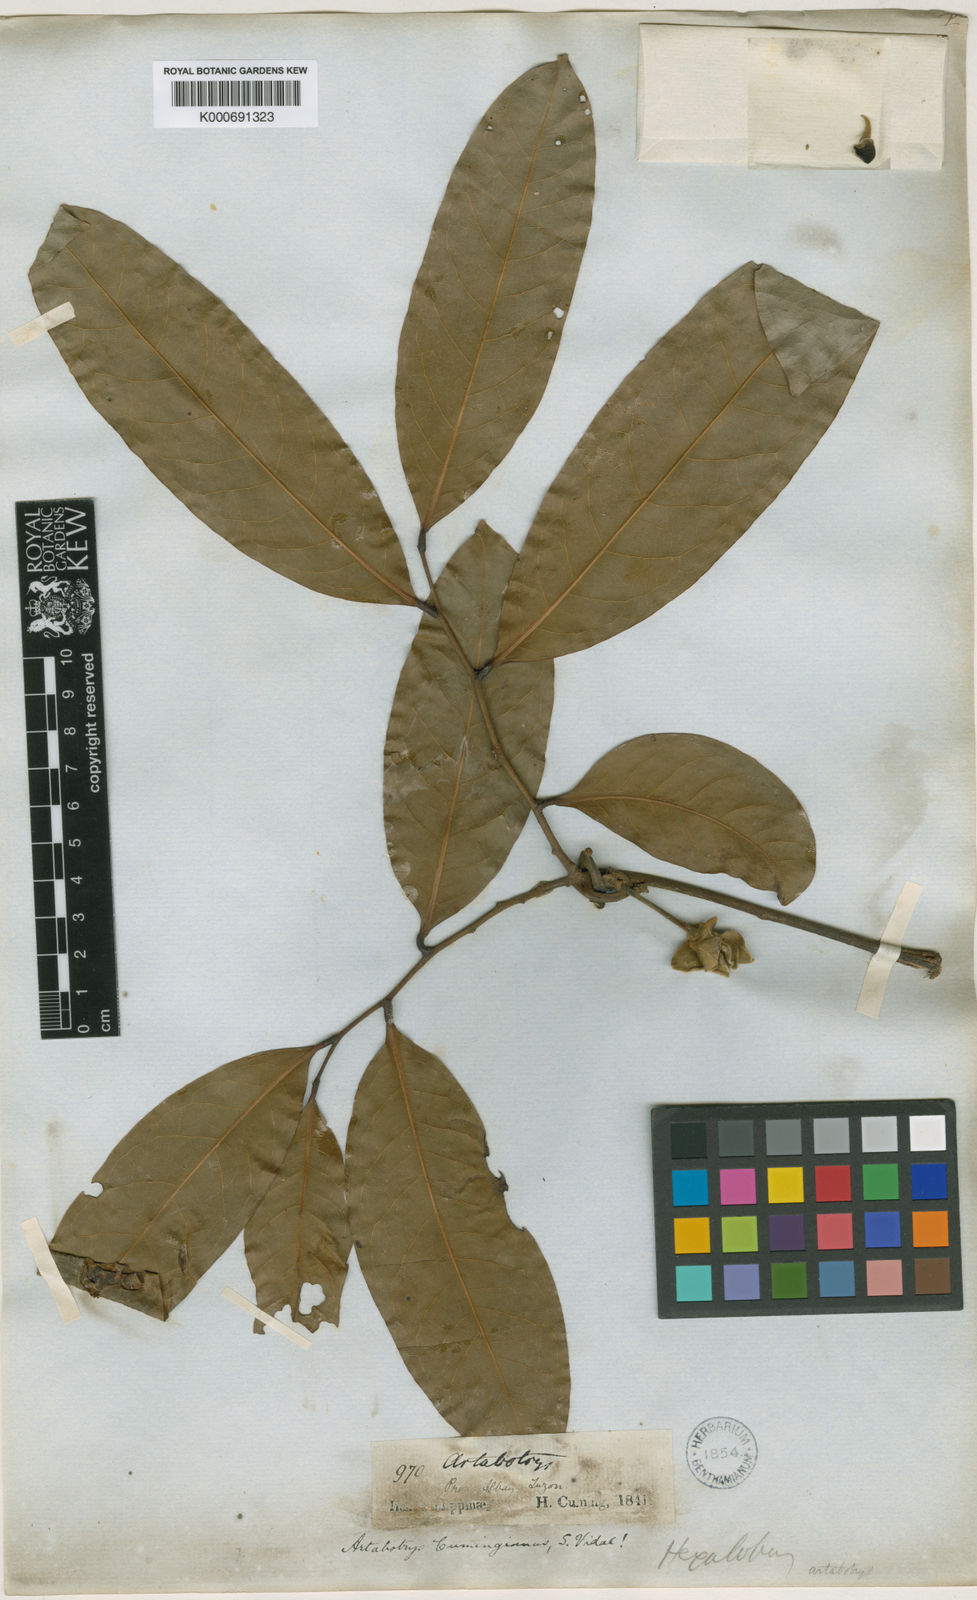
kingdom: Plantae
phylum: Tracheophyta
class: Magnoliopsida
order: Magnoliales
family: Annonaceae
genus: Artabotrys
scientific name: Artabotrys cumingianus
